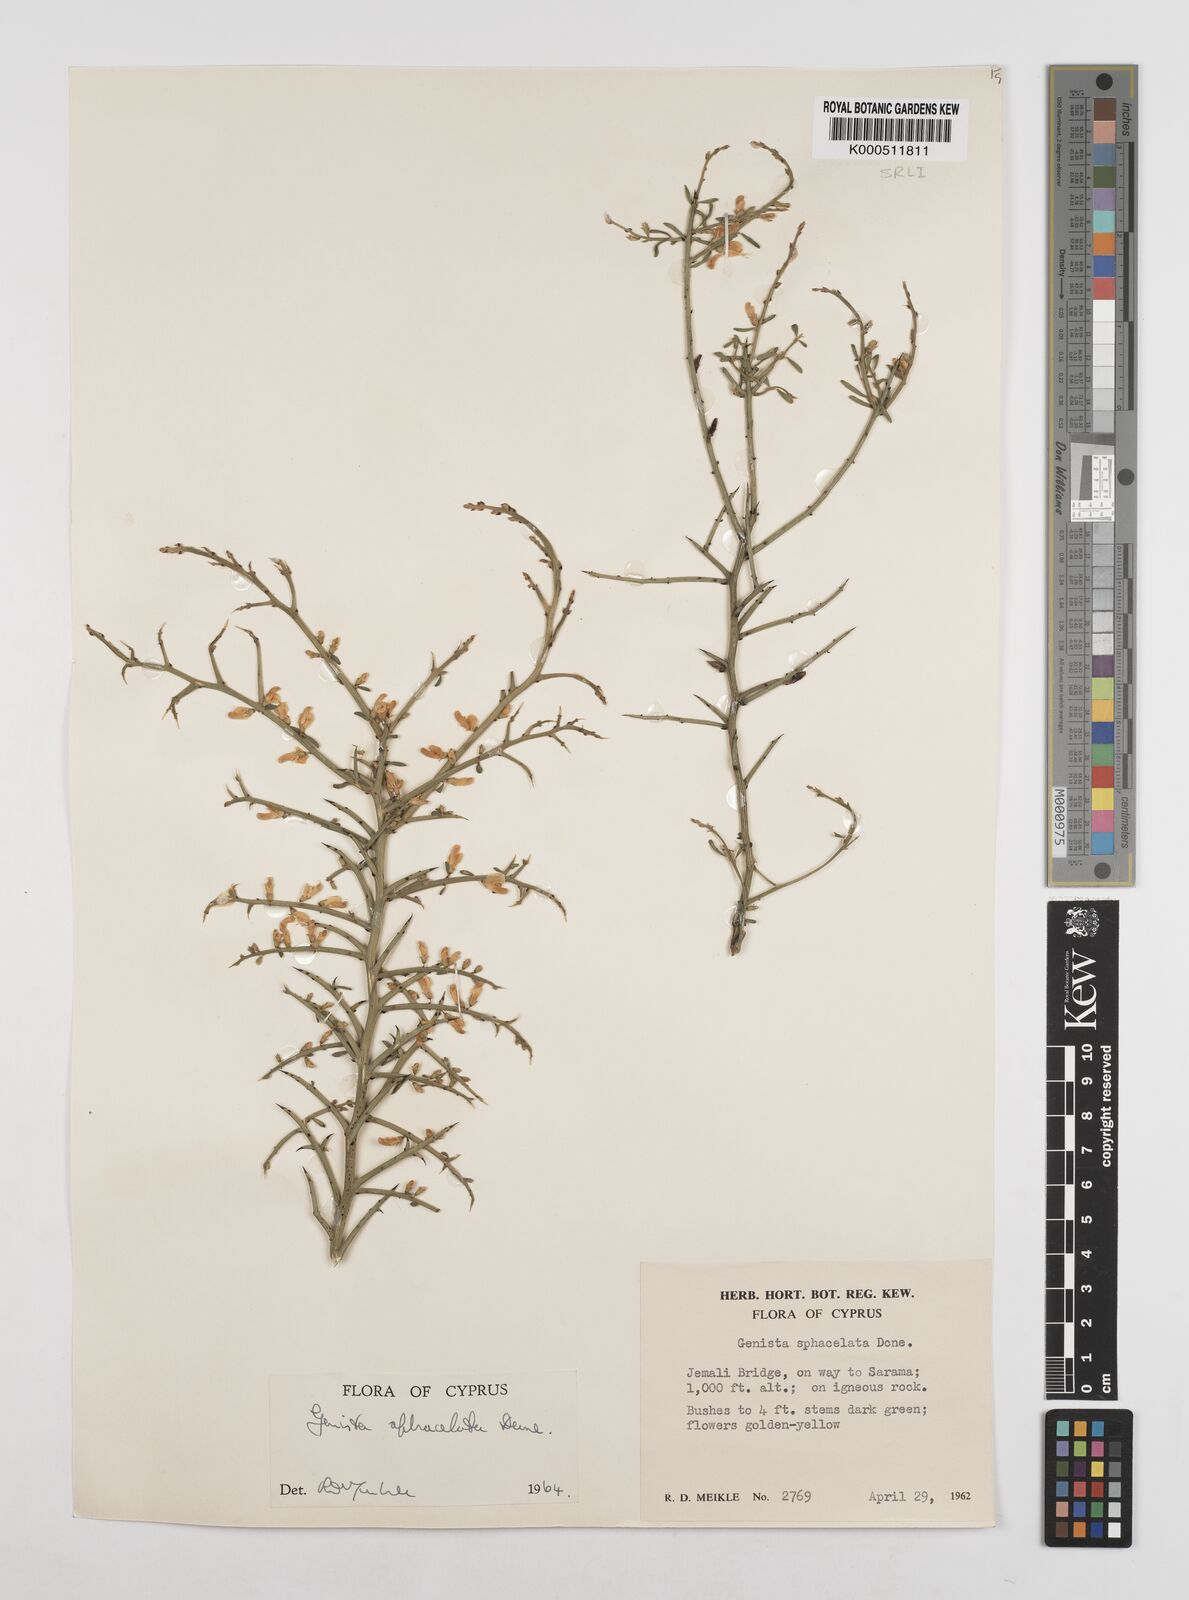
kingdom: Plantae
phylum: Tracheophyta
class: Magnoliopsida
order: Fabales
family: Fabaceae
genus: Genista
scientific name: Genista
